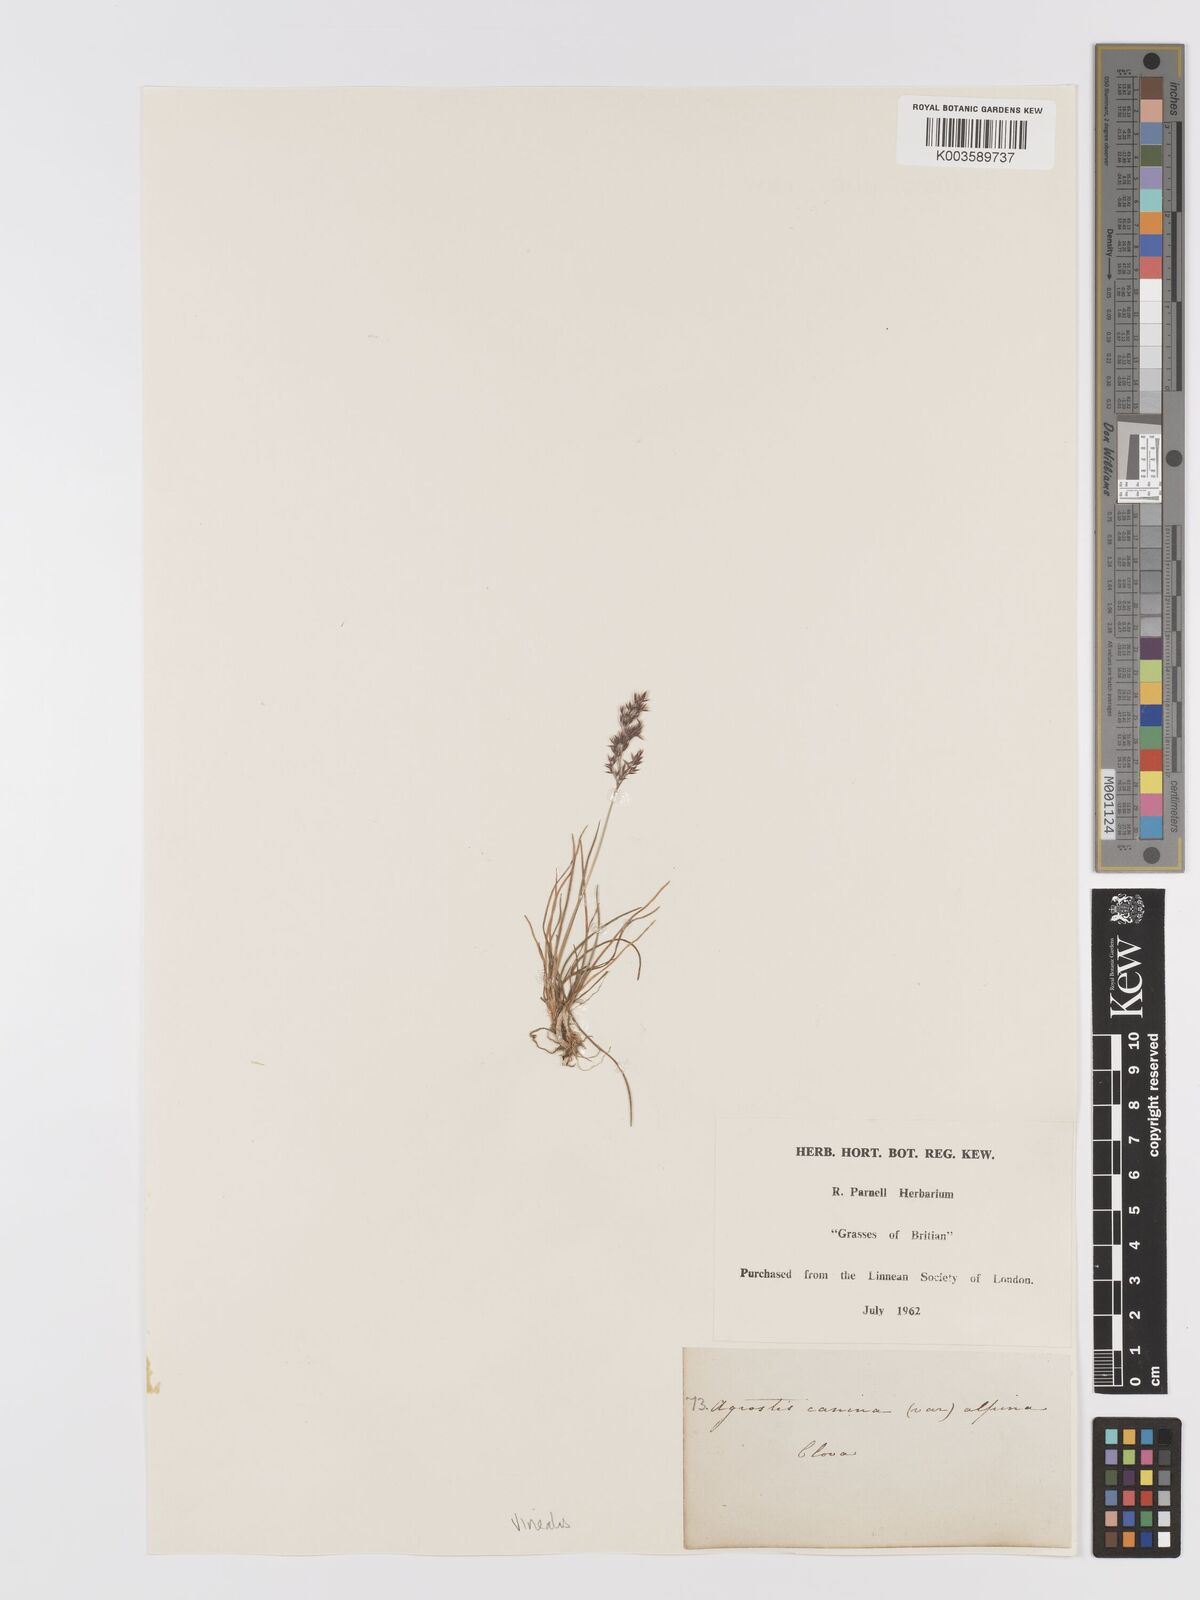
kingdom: Plantae
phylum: Tracheophyta
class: Liliopsida
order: Poales
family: Poaceae
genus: Agrostis
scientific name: Agrostis
